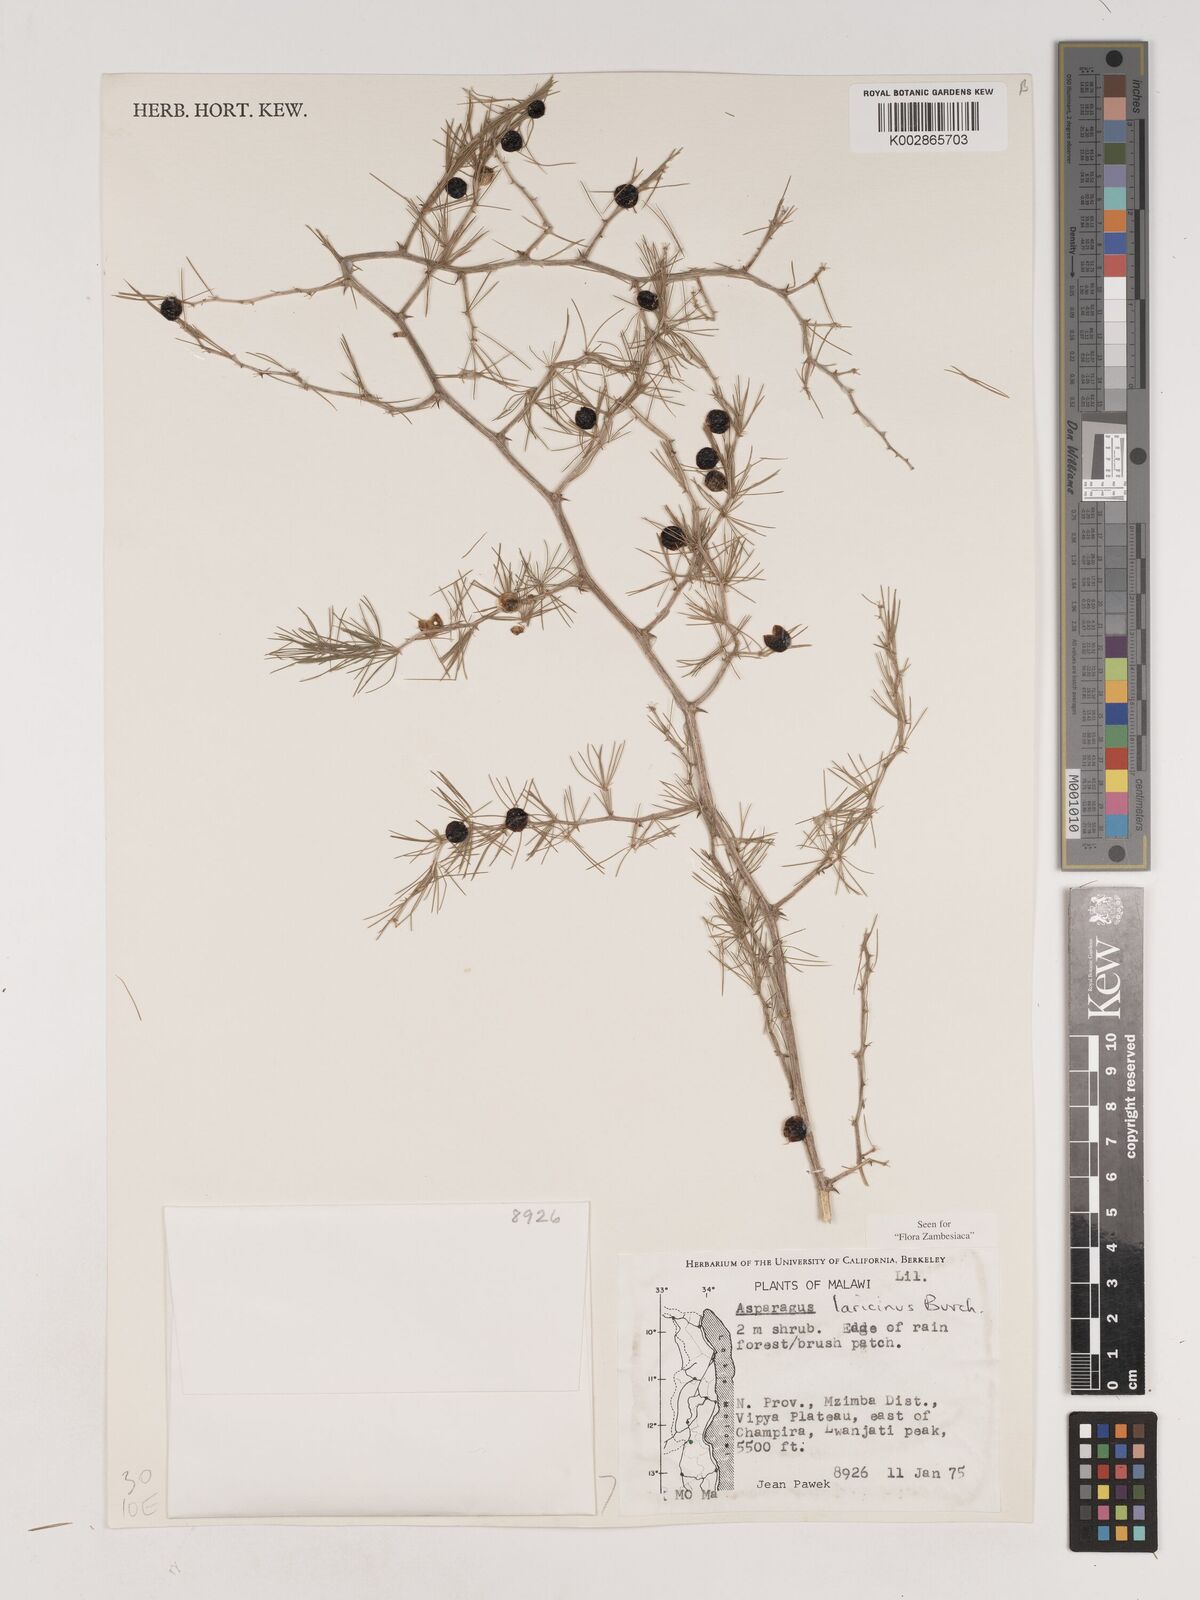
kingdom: Plantae
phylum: Tracheophyta
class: Liliopsida
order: Asparagales
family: Asparagaceae
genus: Asparagus
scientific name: Asparagus laricinus
